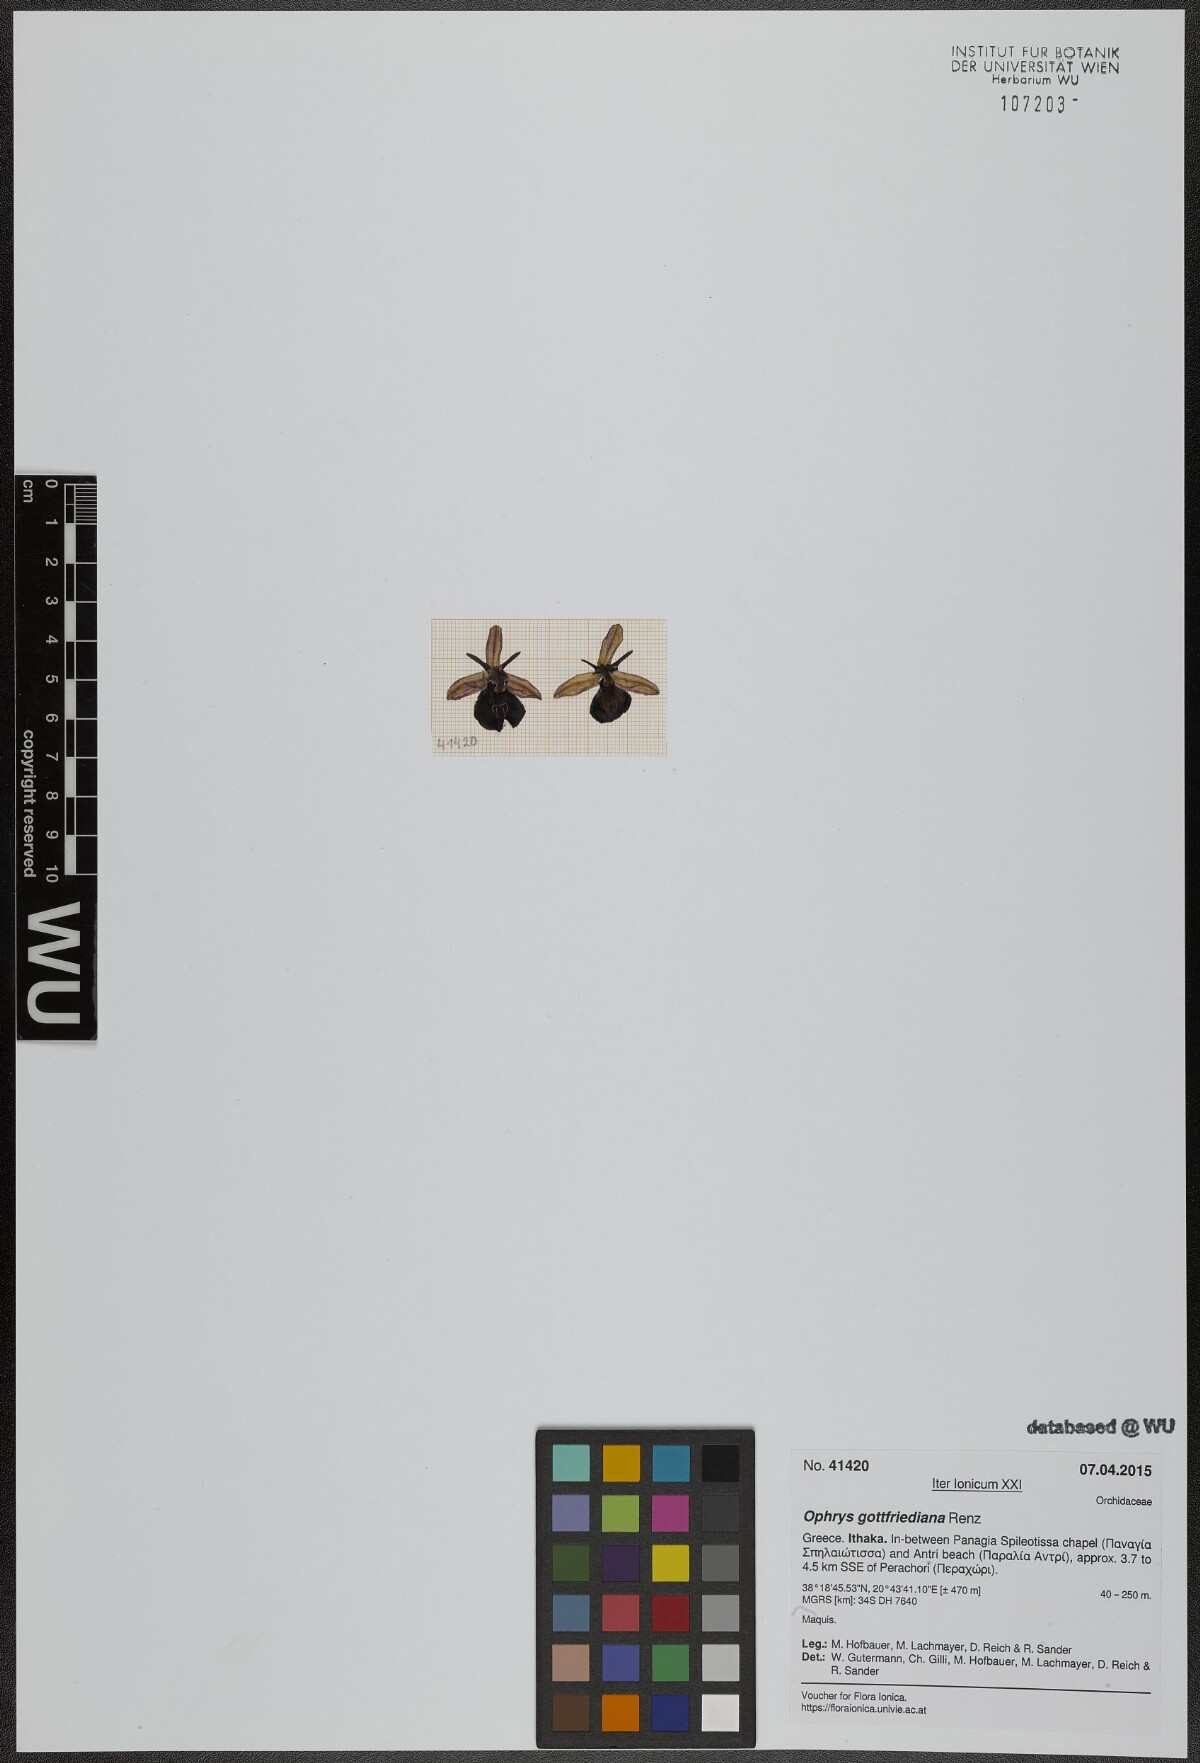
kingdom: Plantae
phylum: Tracheophyta
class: Liliopsida
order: Asparagales
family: Orchidaceae
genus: Ophrys
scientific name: Ophrys ferrum-equinum
